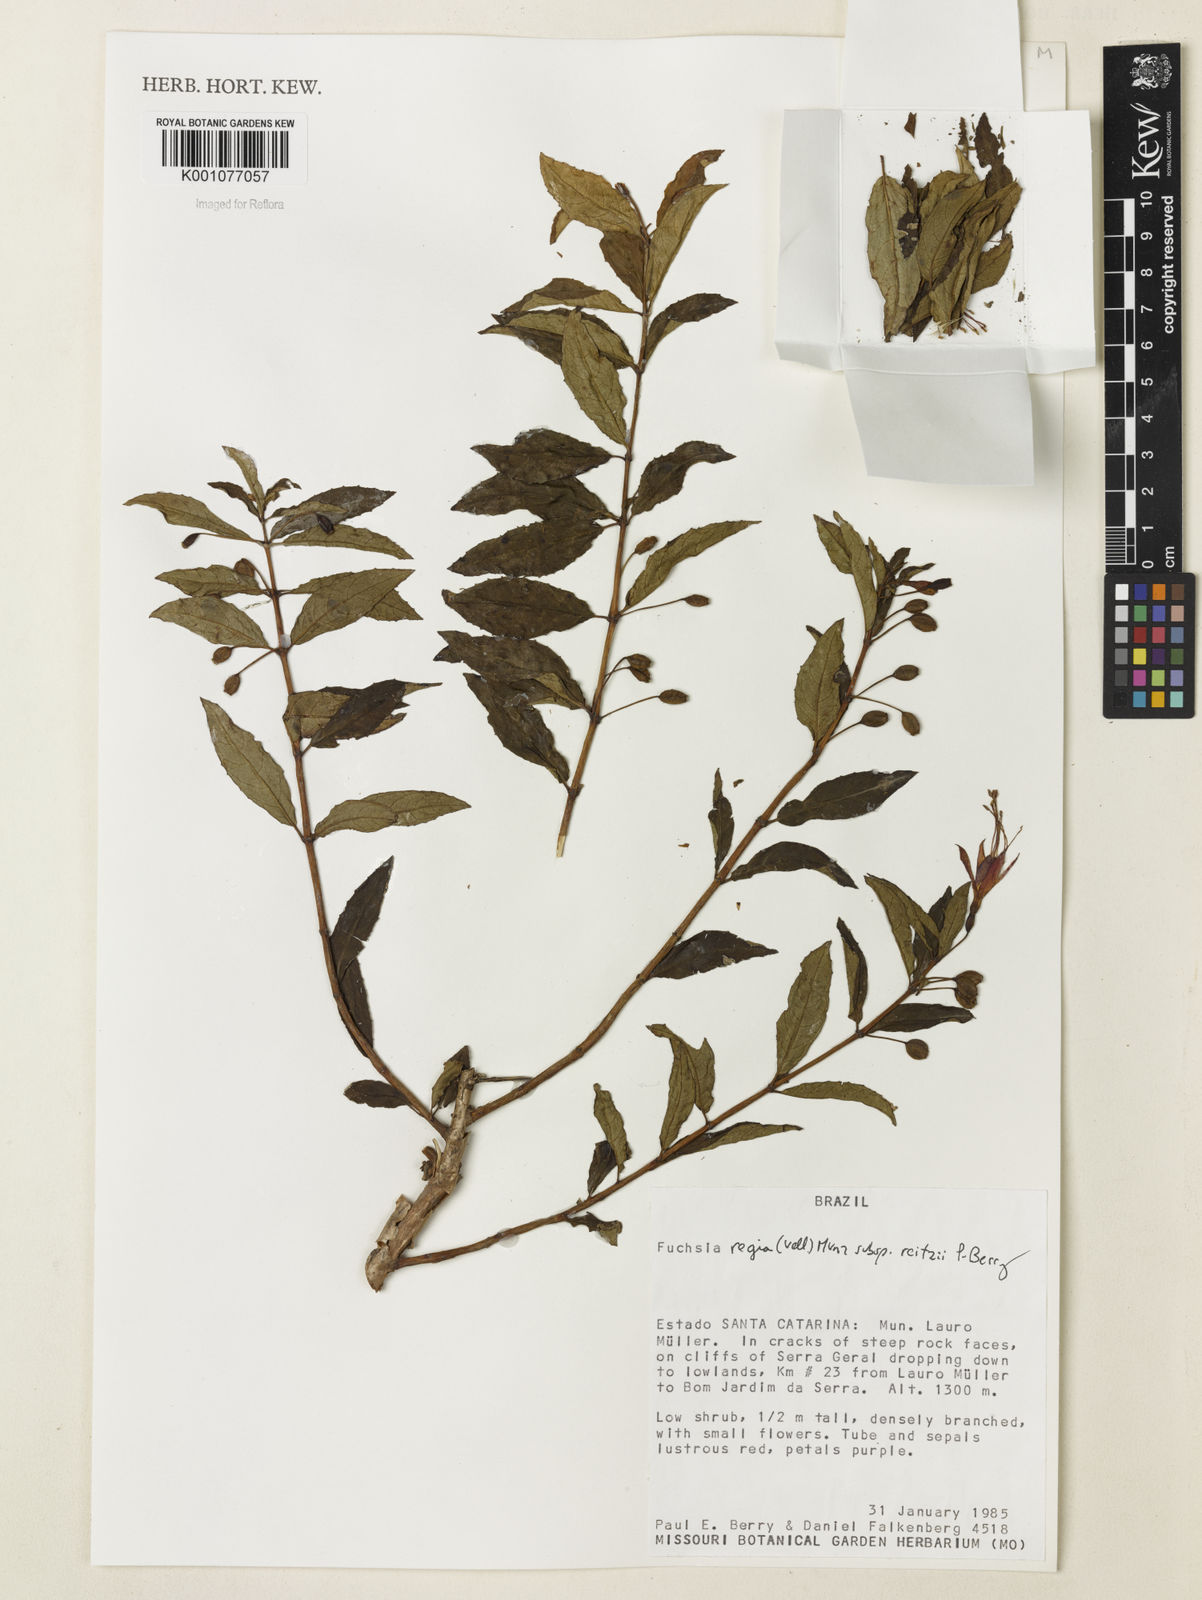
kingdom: Plantae
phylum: Tracheophyta
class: Magnoliopsida
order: Myrtales
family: Onagraceae
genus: Fuchsia
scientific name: Fuchsia regia
